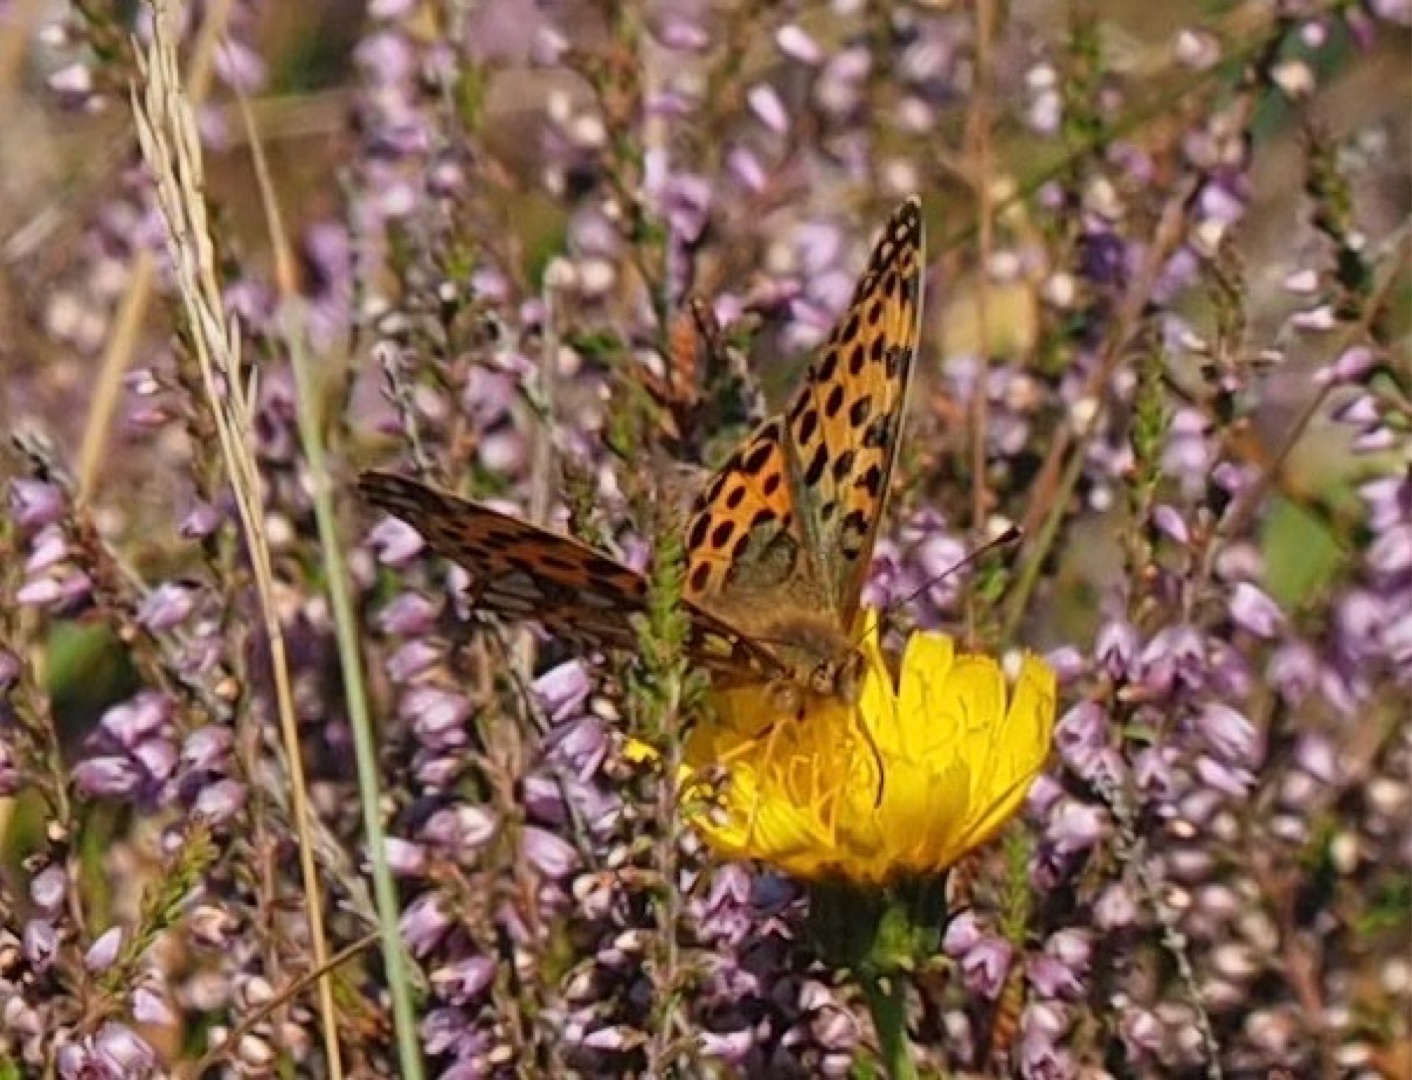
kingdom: Animalia
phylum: Arthropoda
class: Insecta
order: Lepidoptera
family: Nymphalidae
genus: Issoria
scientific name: Issoria lathonia
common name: Storplettet perlemorsommerfugl
